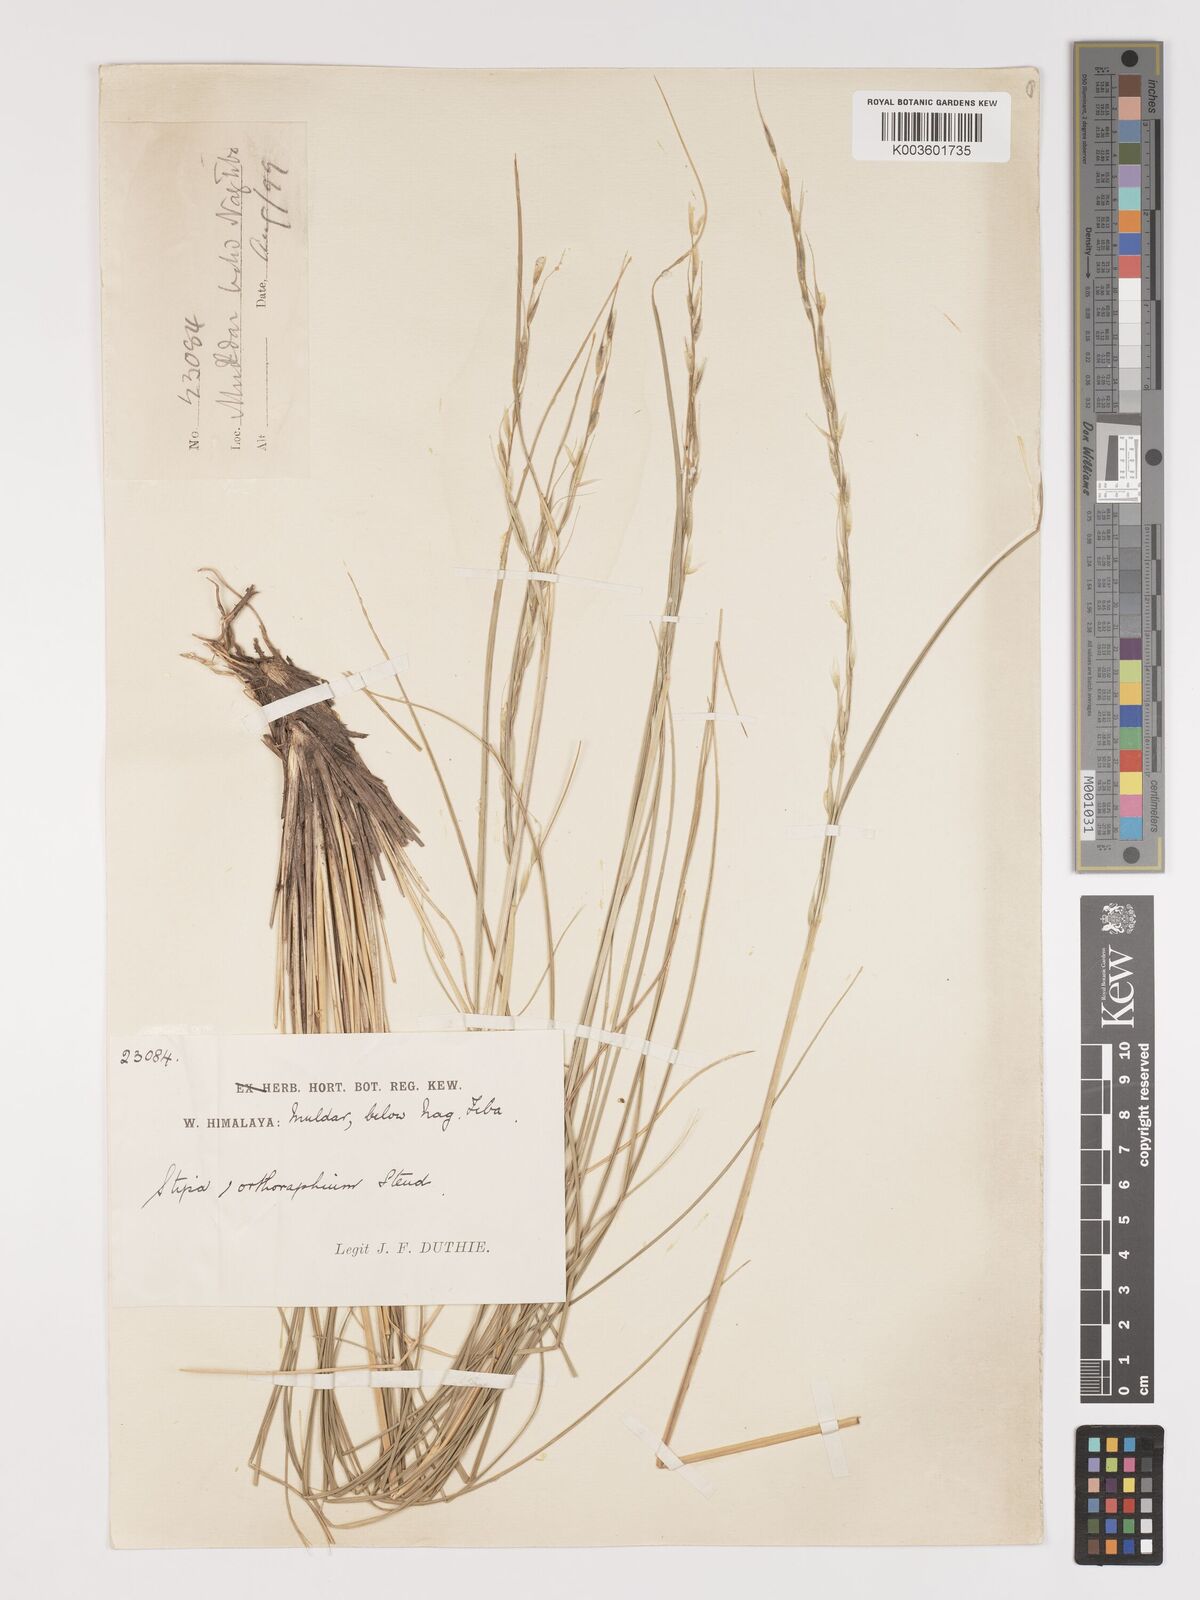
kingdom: Plantae
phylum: Tracheophyta
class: Liliopsida
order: Poales
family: Poaceae
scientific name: Poaceae
